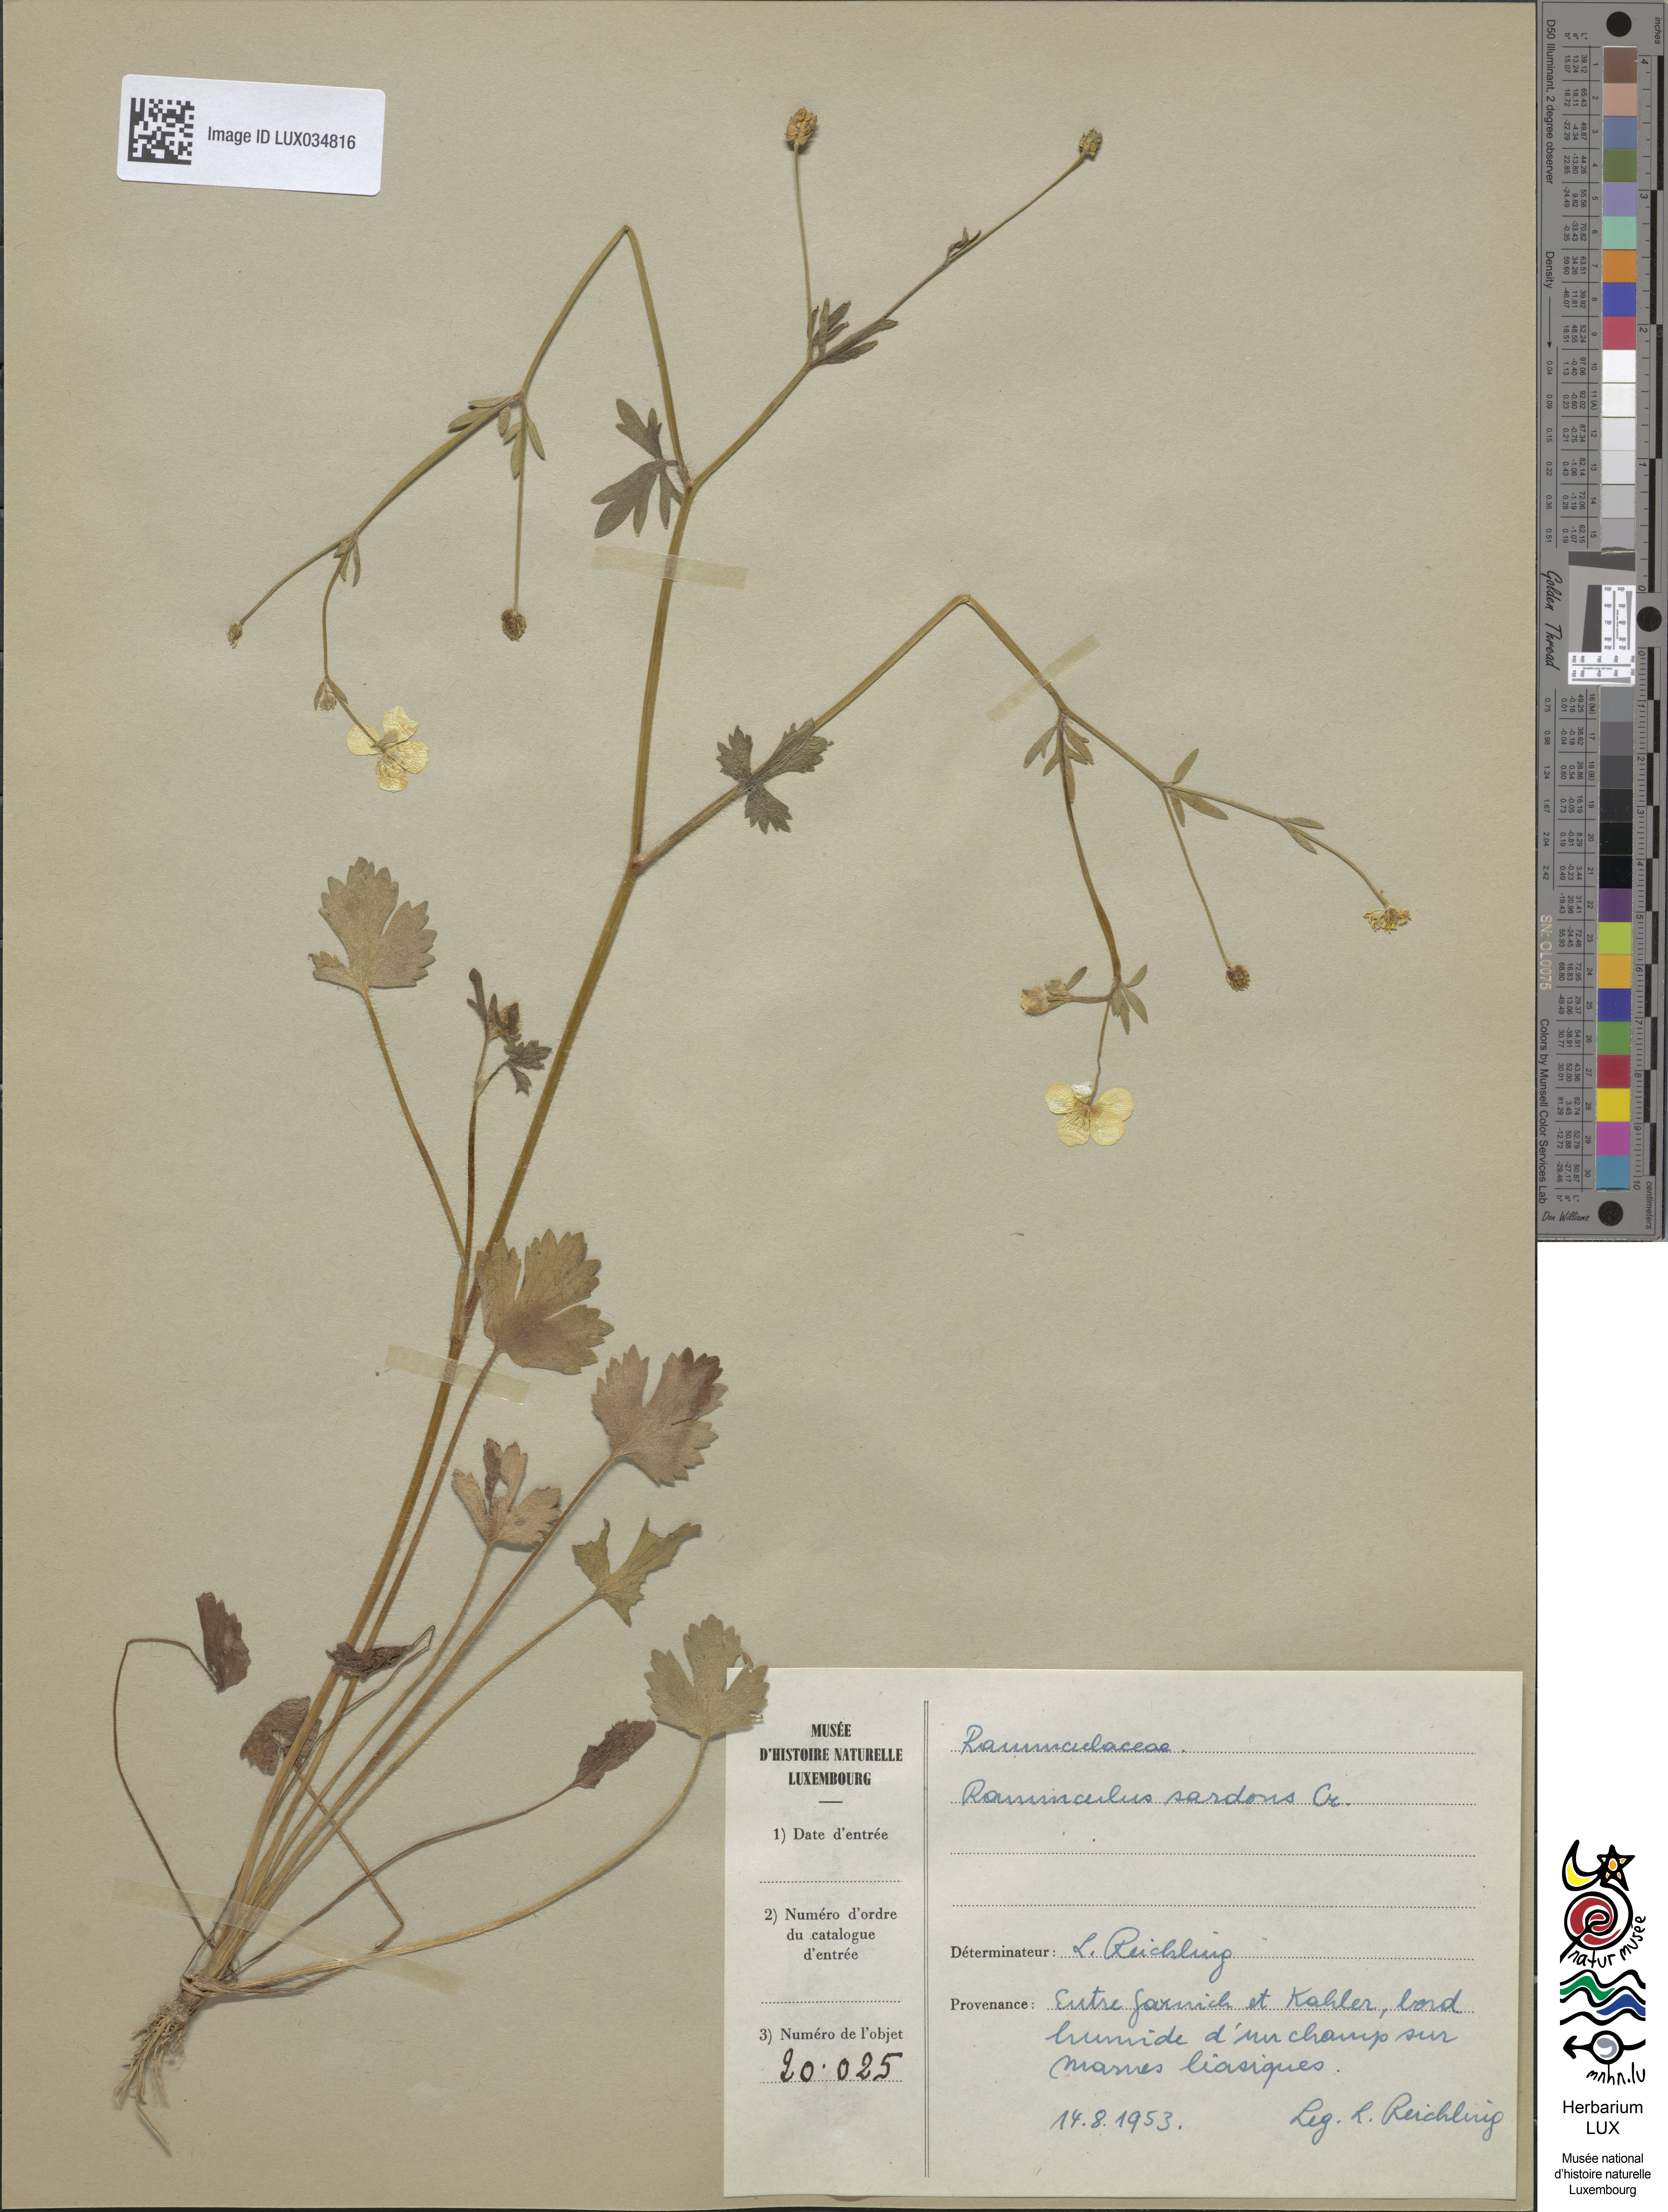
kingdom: Plantae
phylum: Tracheophyta
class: Magnoliopsida
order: Ranunculales
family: Ranunculaceae
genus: Ranunculus
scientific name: Ranunculus sardous
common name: Hairy buttercup
